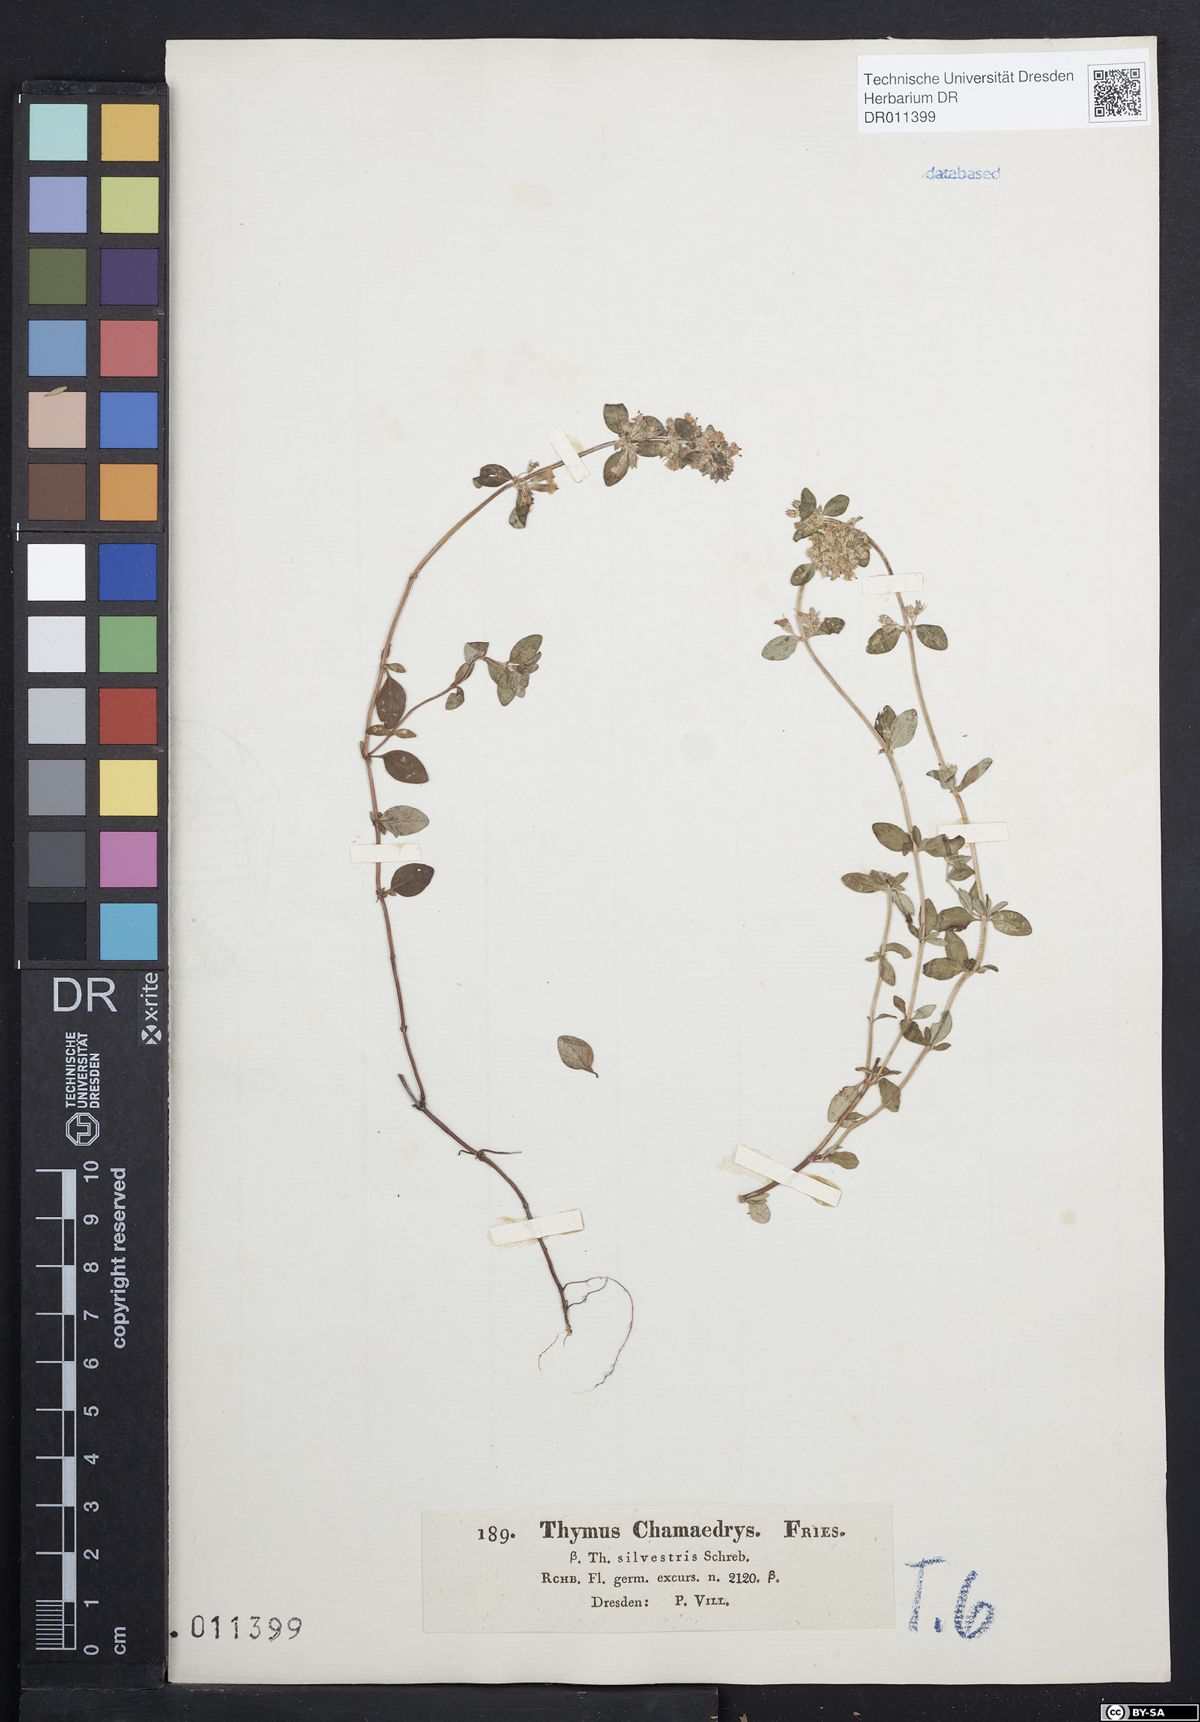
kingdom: Plantae
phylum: Tracheophyta
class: Magnoliopsida
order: Lamiales
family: Lamiaceae
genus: Thymus
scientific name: Thymus pulegioides
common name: Large thyme
